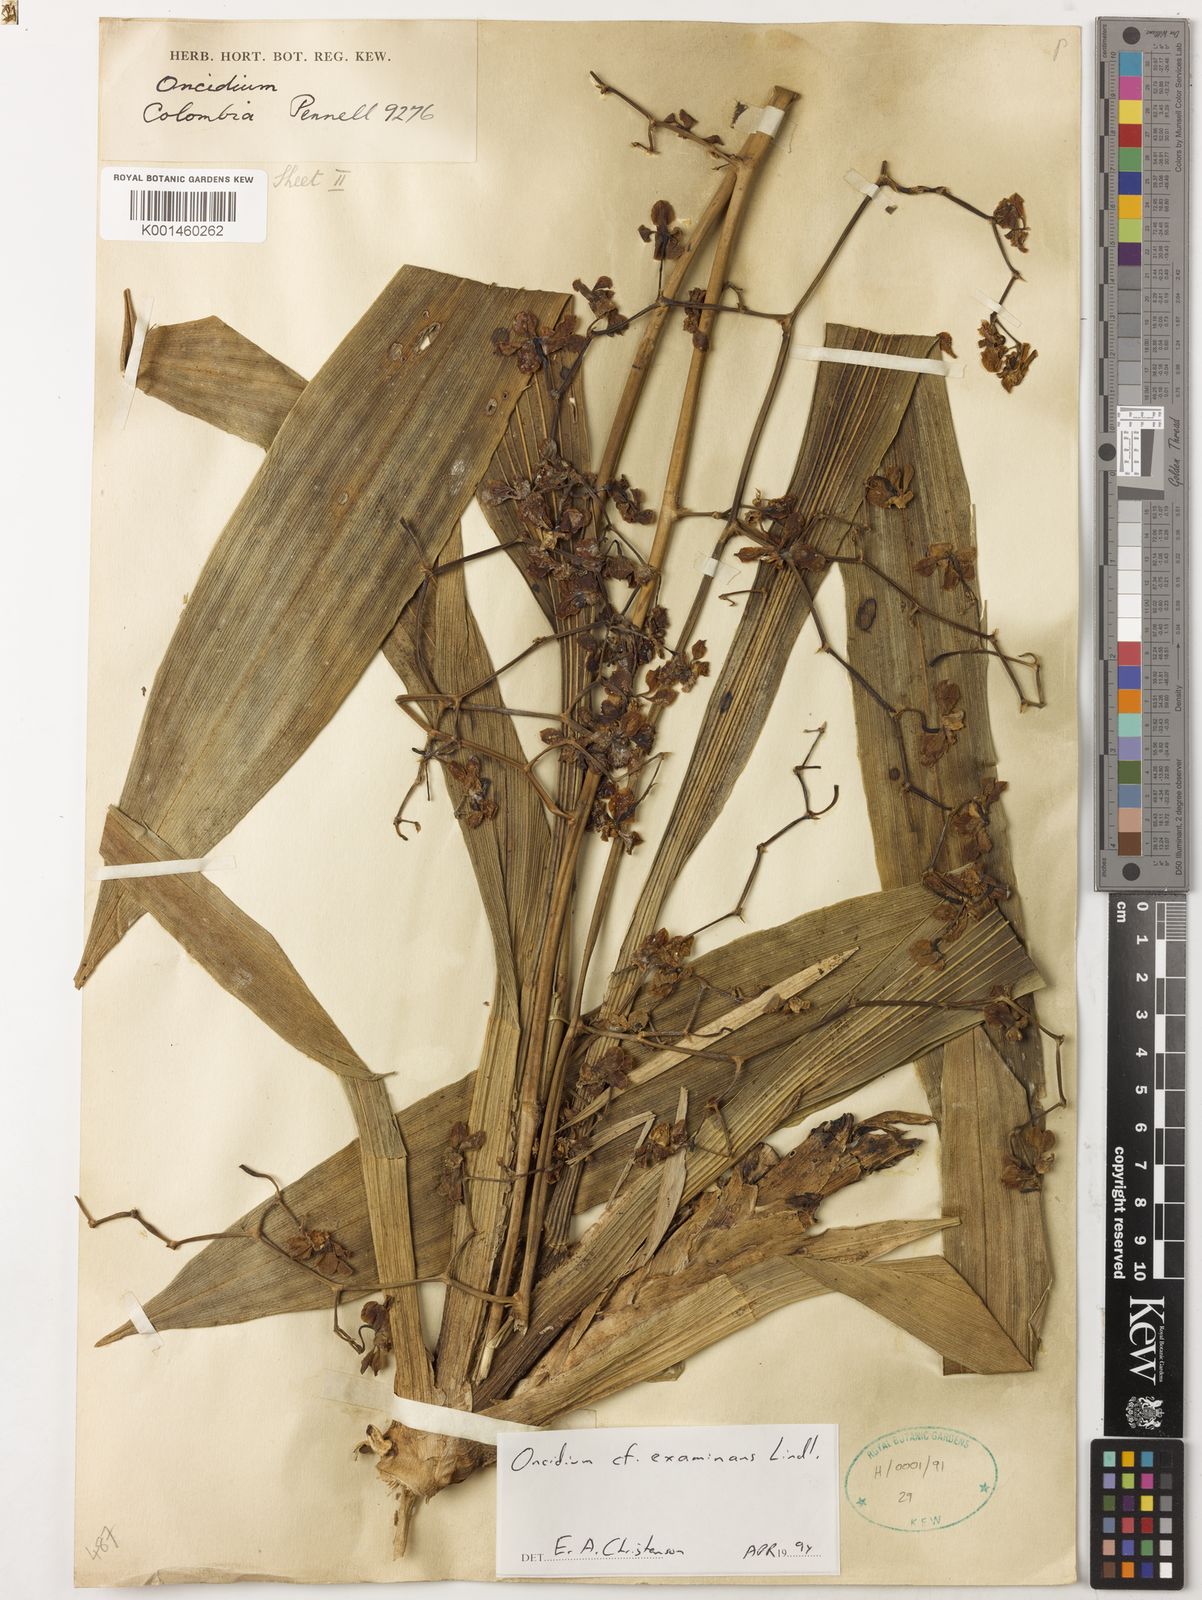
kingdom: Plantae
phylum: Tracheophyta
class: Liliopsida
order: Asparagales
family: Orchidaceae
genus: Cyrtochilum
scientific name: Cyrtochilum examinans
